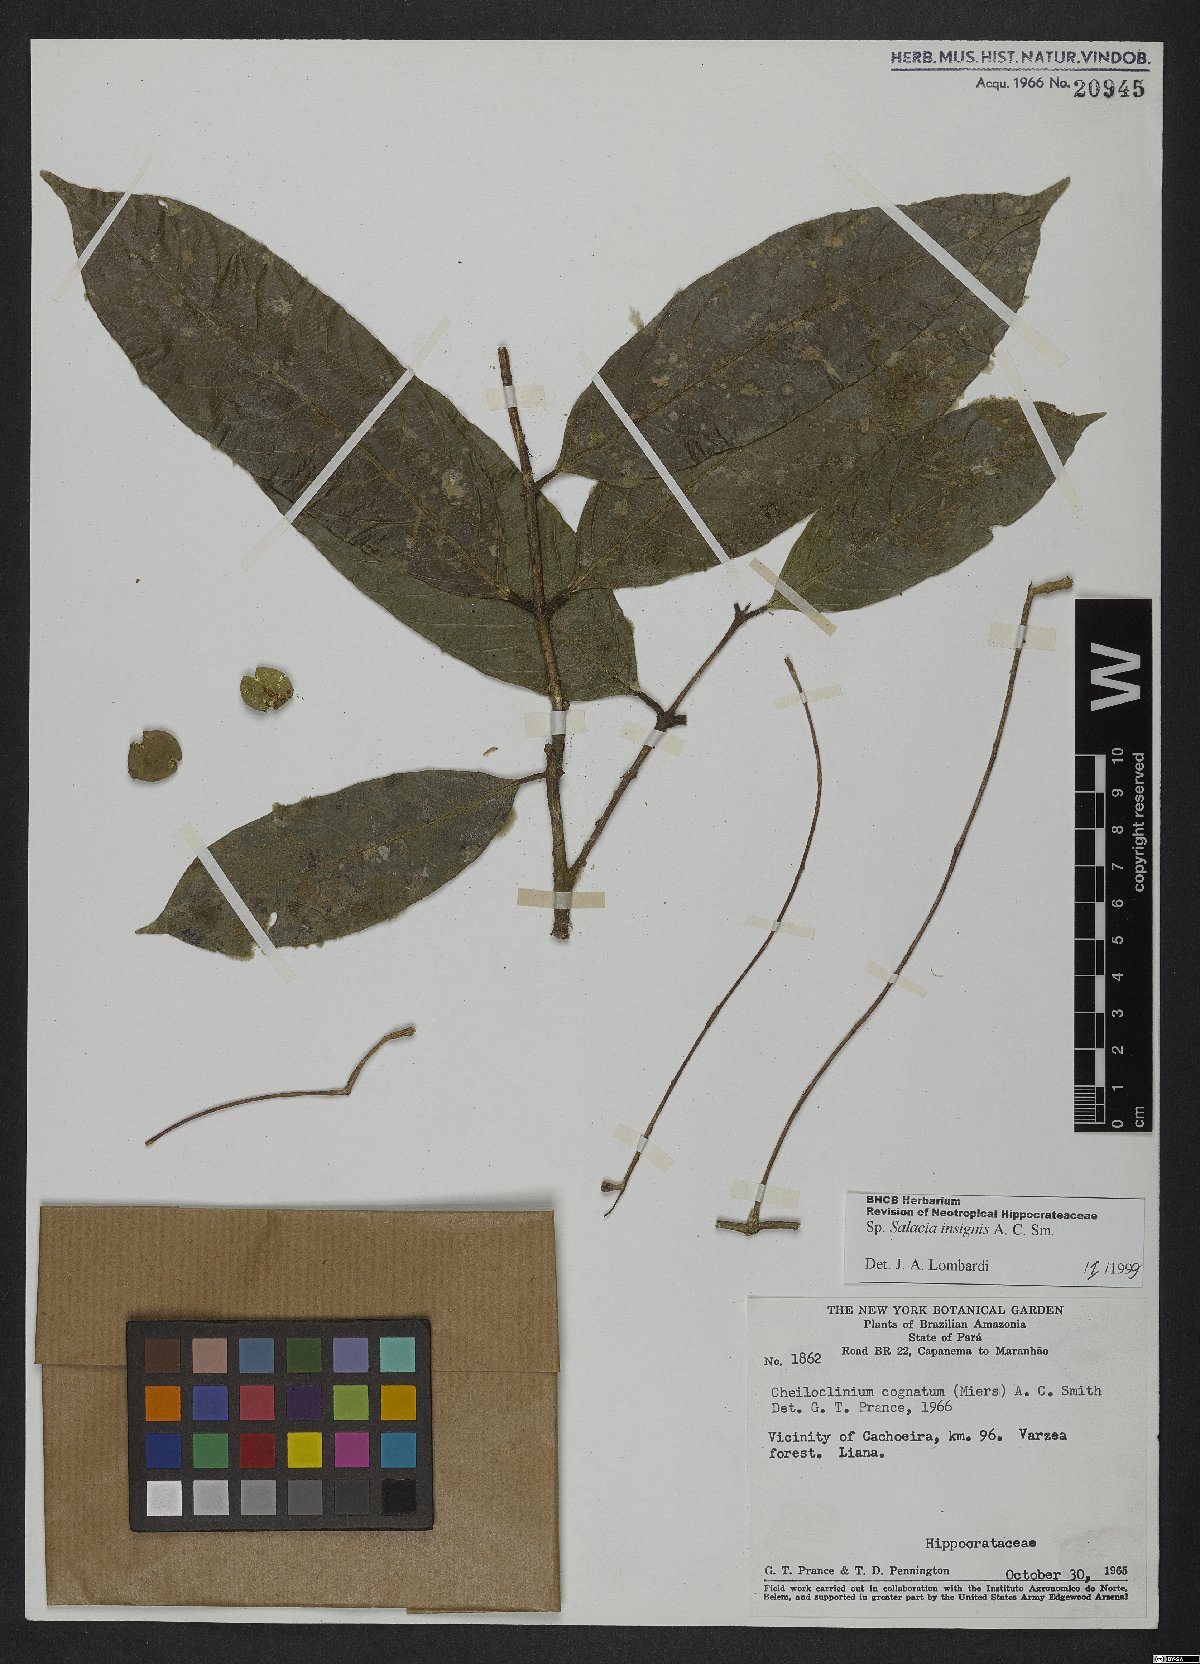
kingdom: Plantae
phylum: Tracheophyta
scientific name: Tracheophyta
